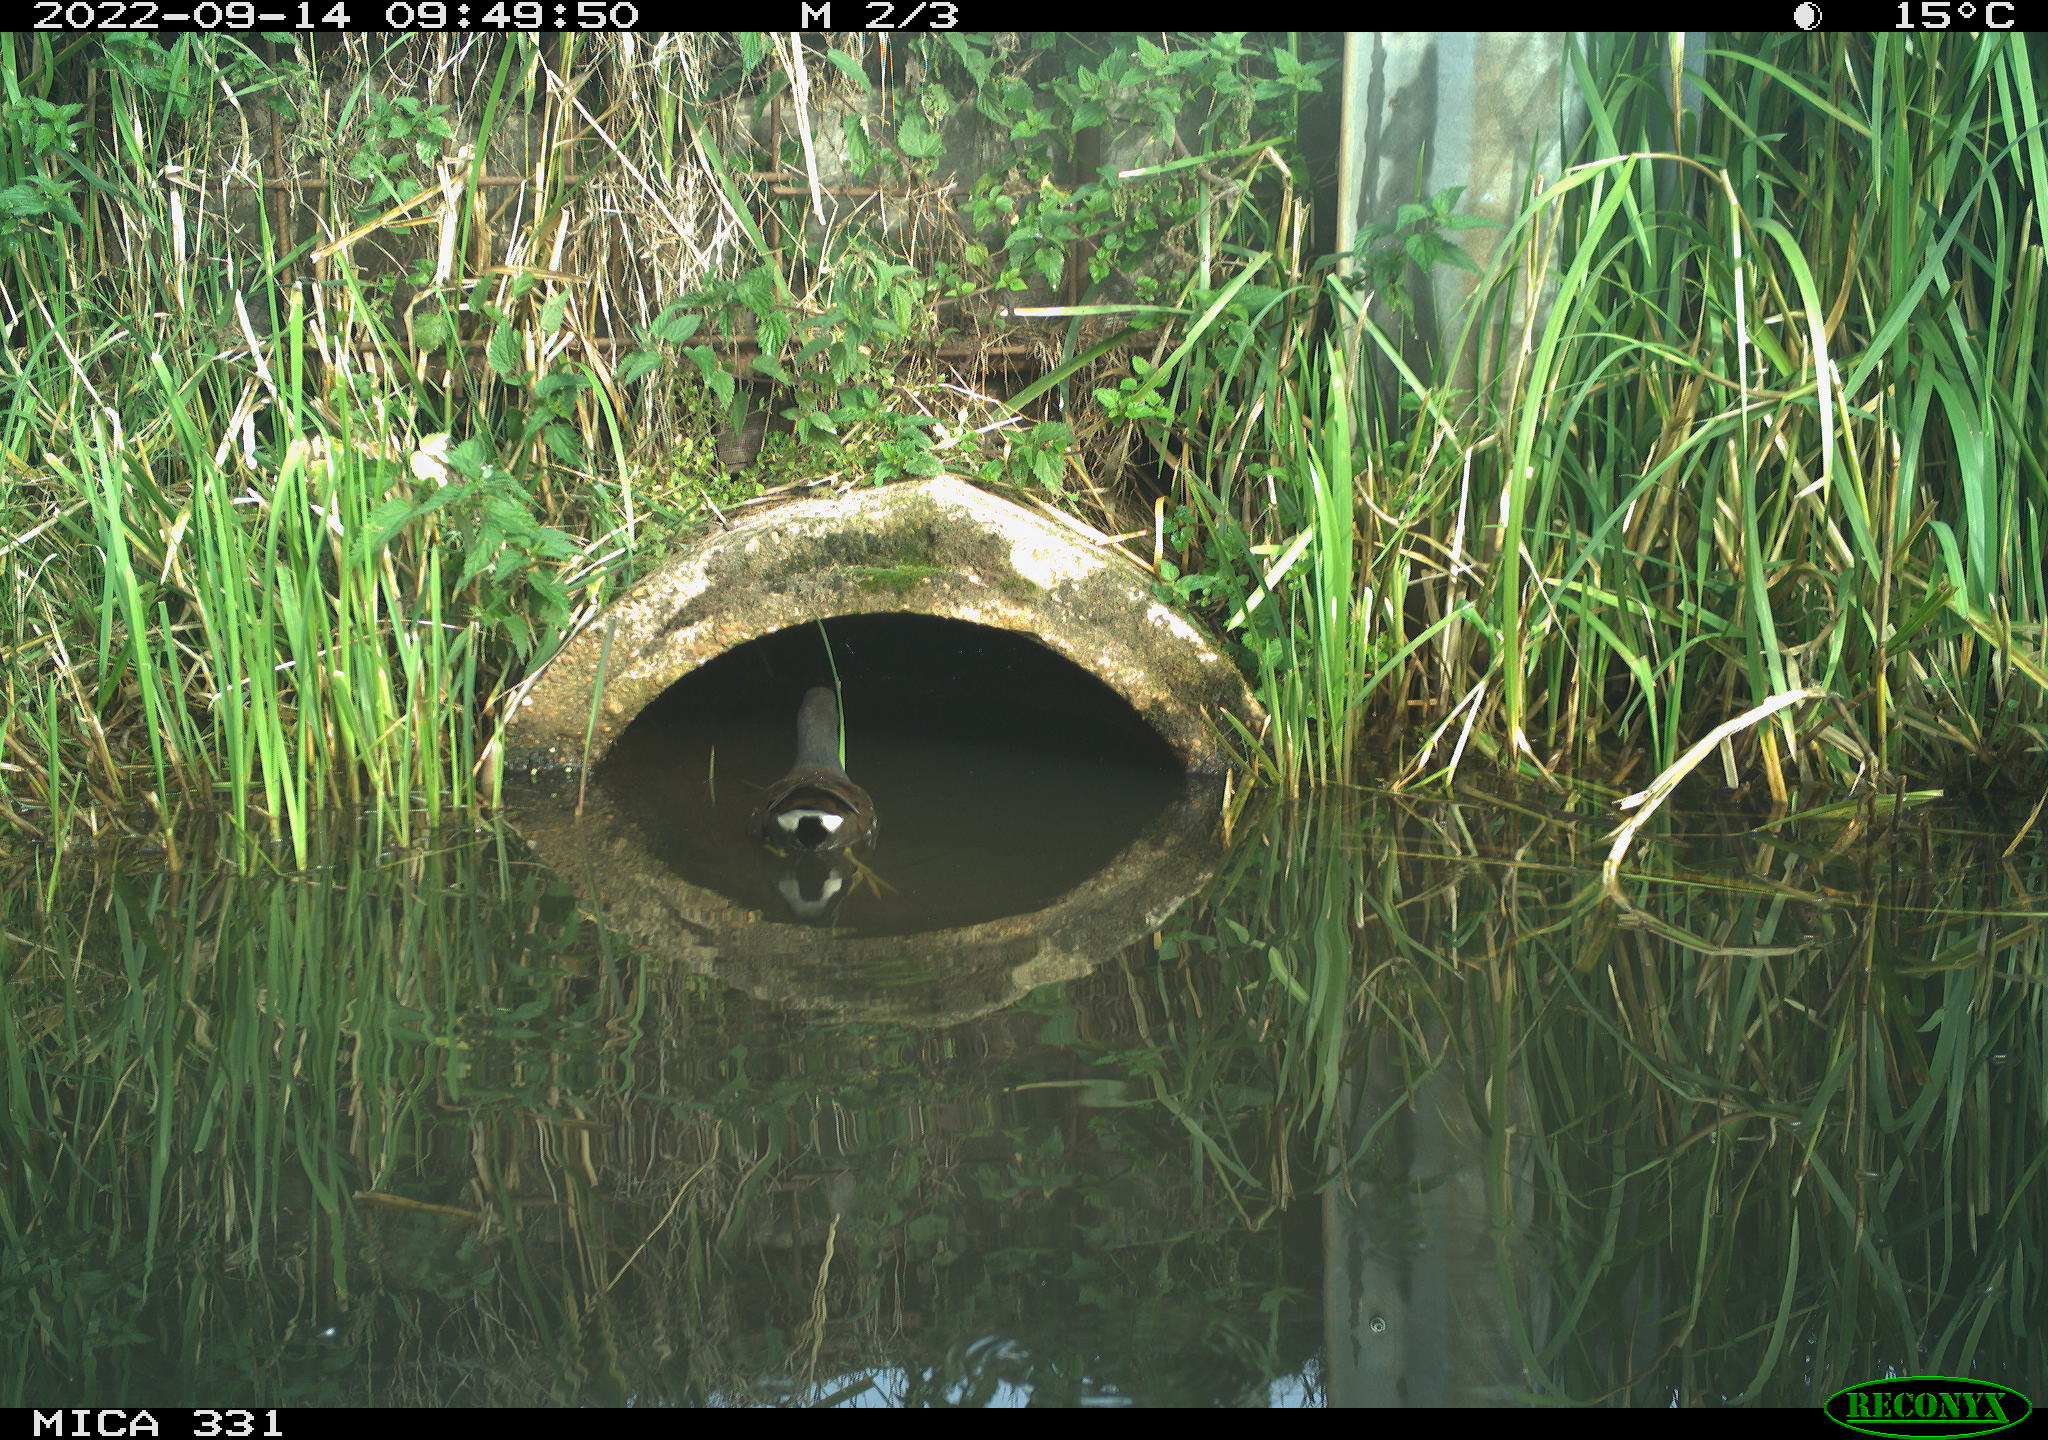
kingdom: Animalia
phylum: Chordata
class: Aves
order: Gruiformes
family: Rallidae
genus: Gallinula
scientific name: Gallinula chloropus
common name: Common moorhen
